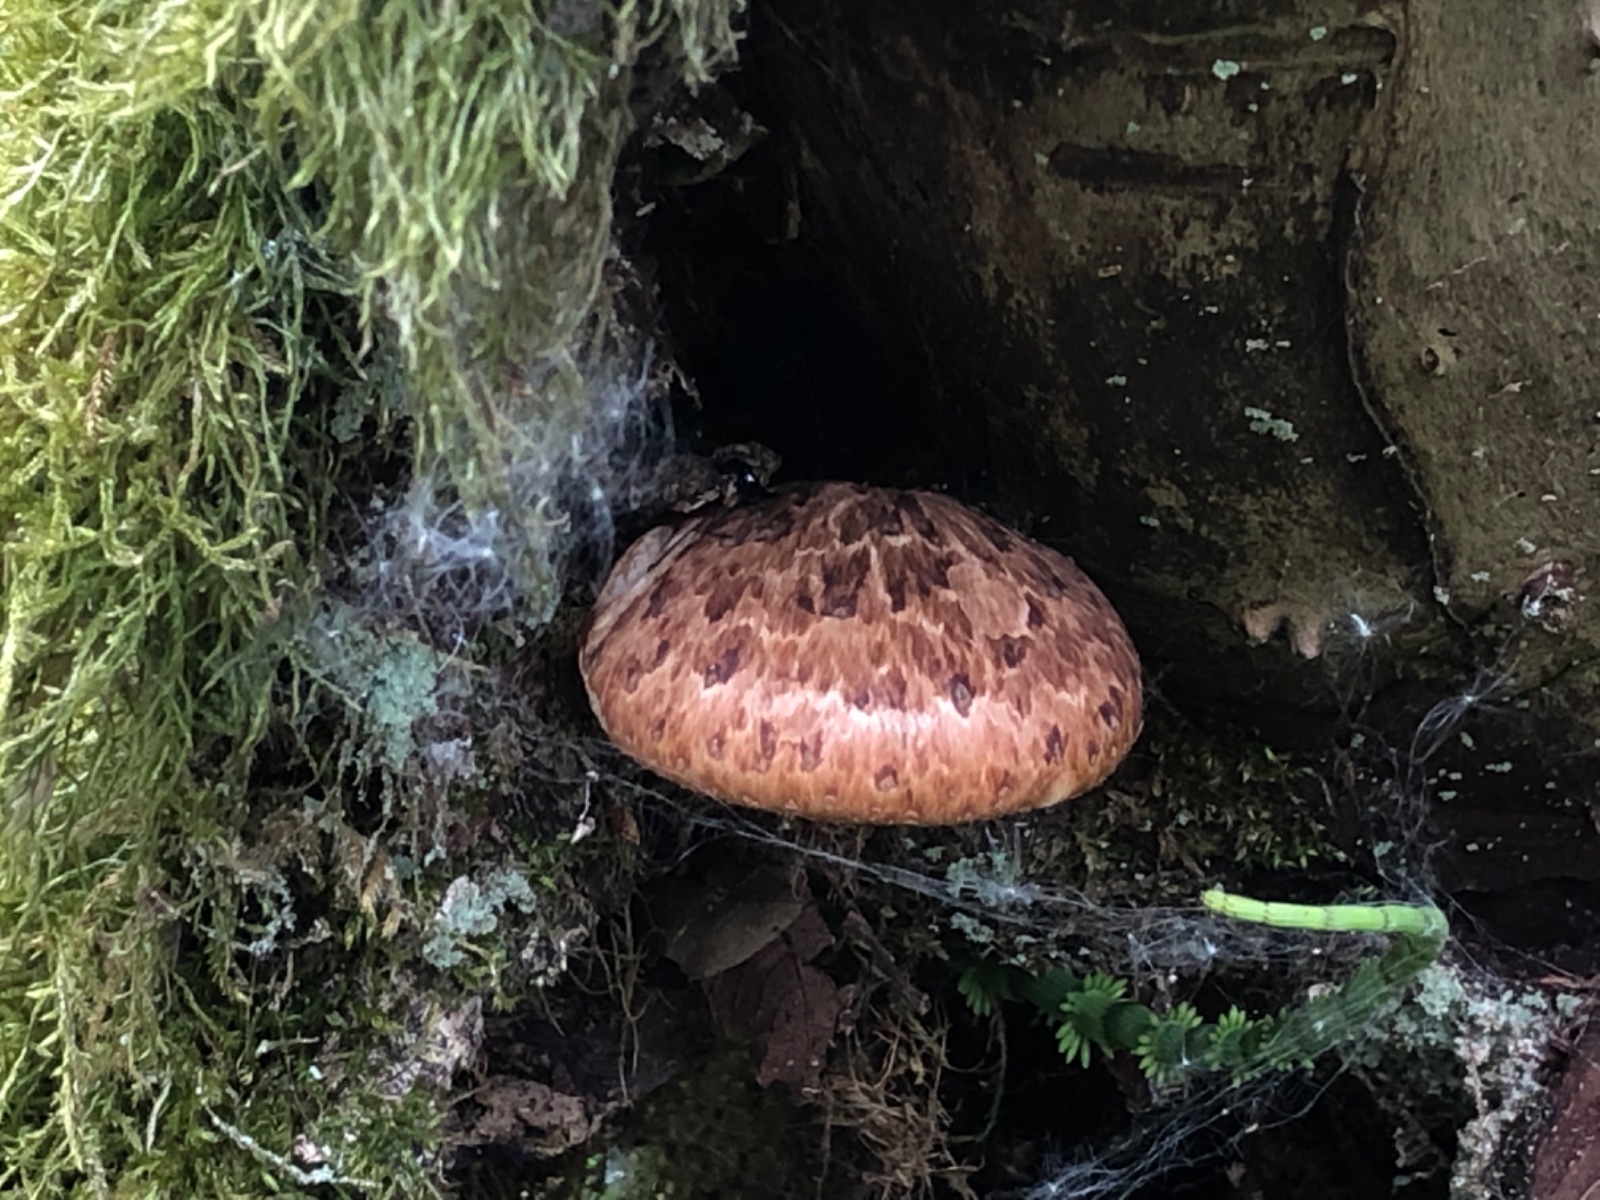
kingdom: Fungi
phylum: Basidiomycota
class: Agaricomycetes
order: Polyporales
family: Polyporaceae
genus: Cerioporus
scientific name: Cerioporus squamosus
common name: skællet stilkporesvamp
